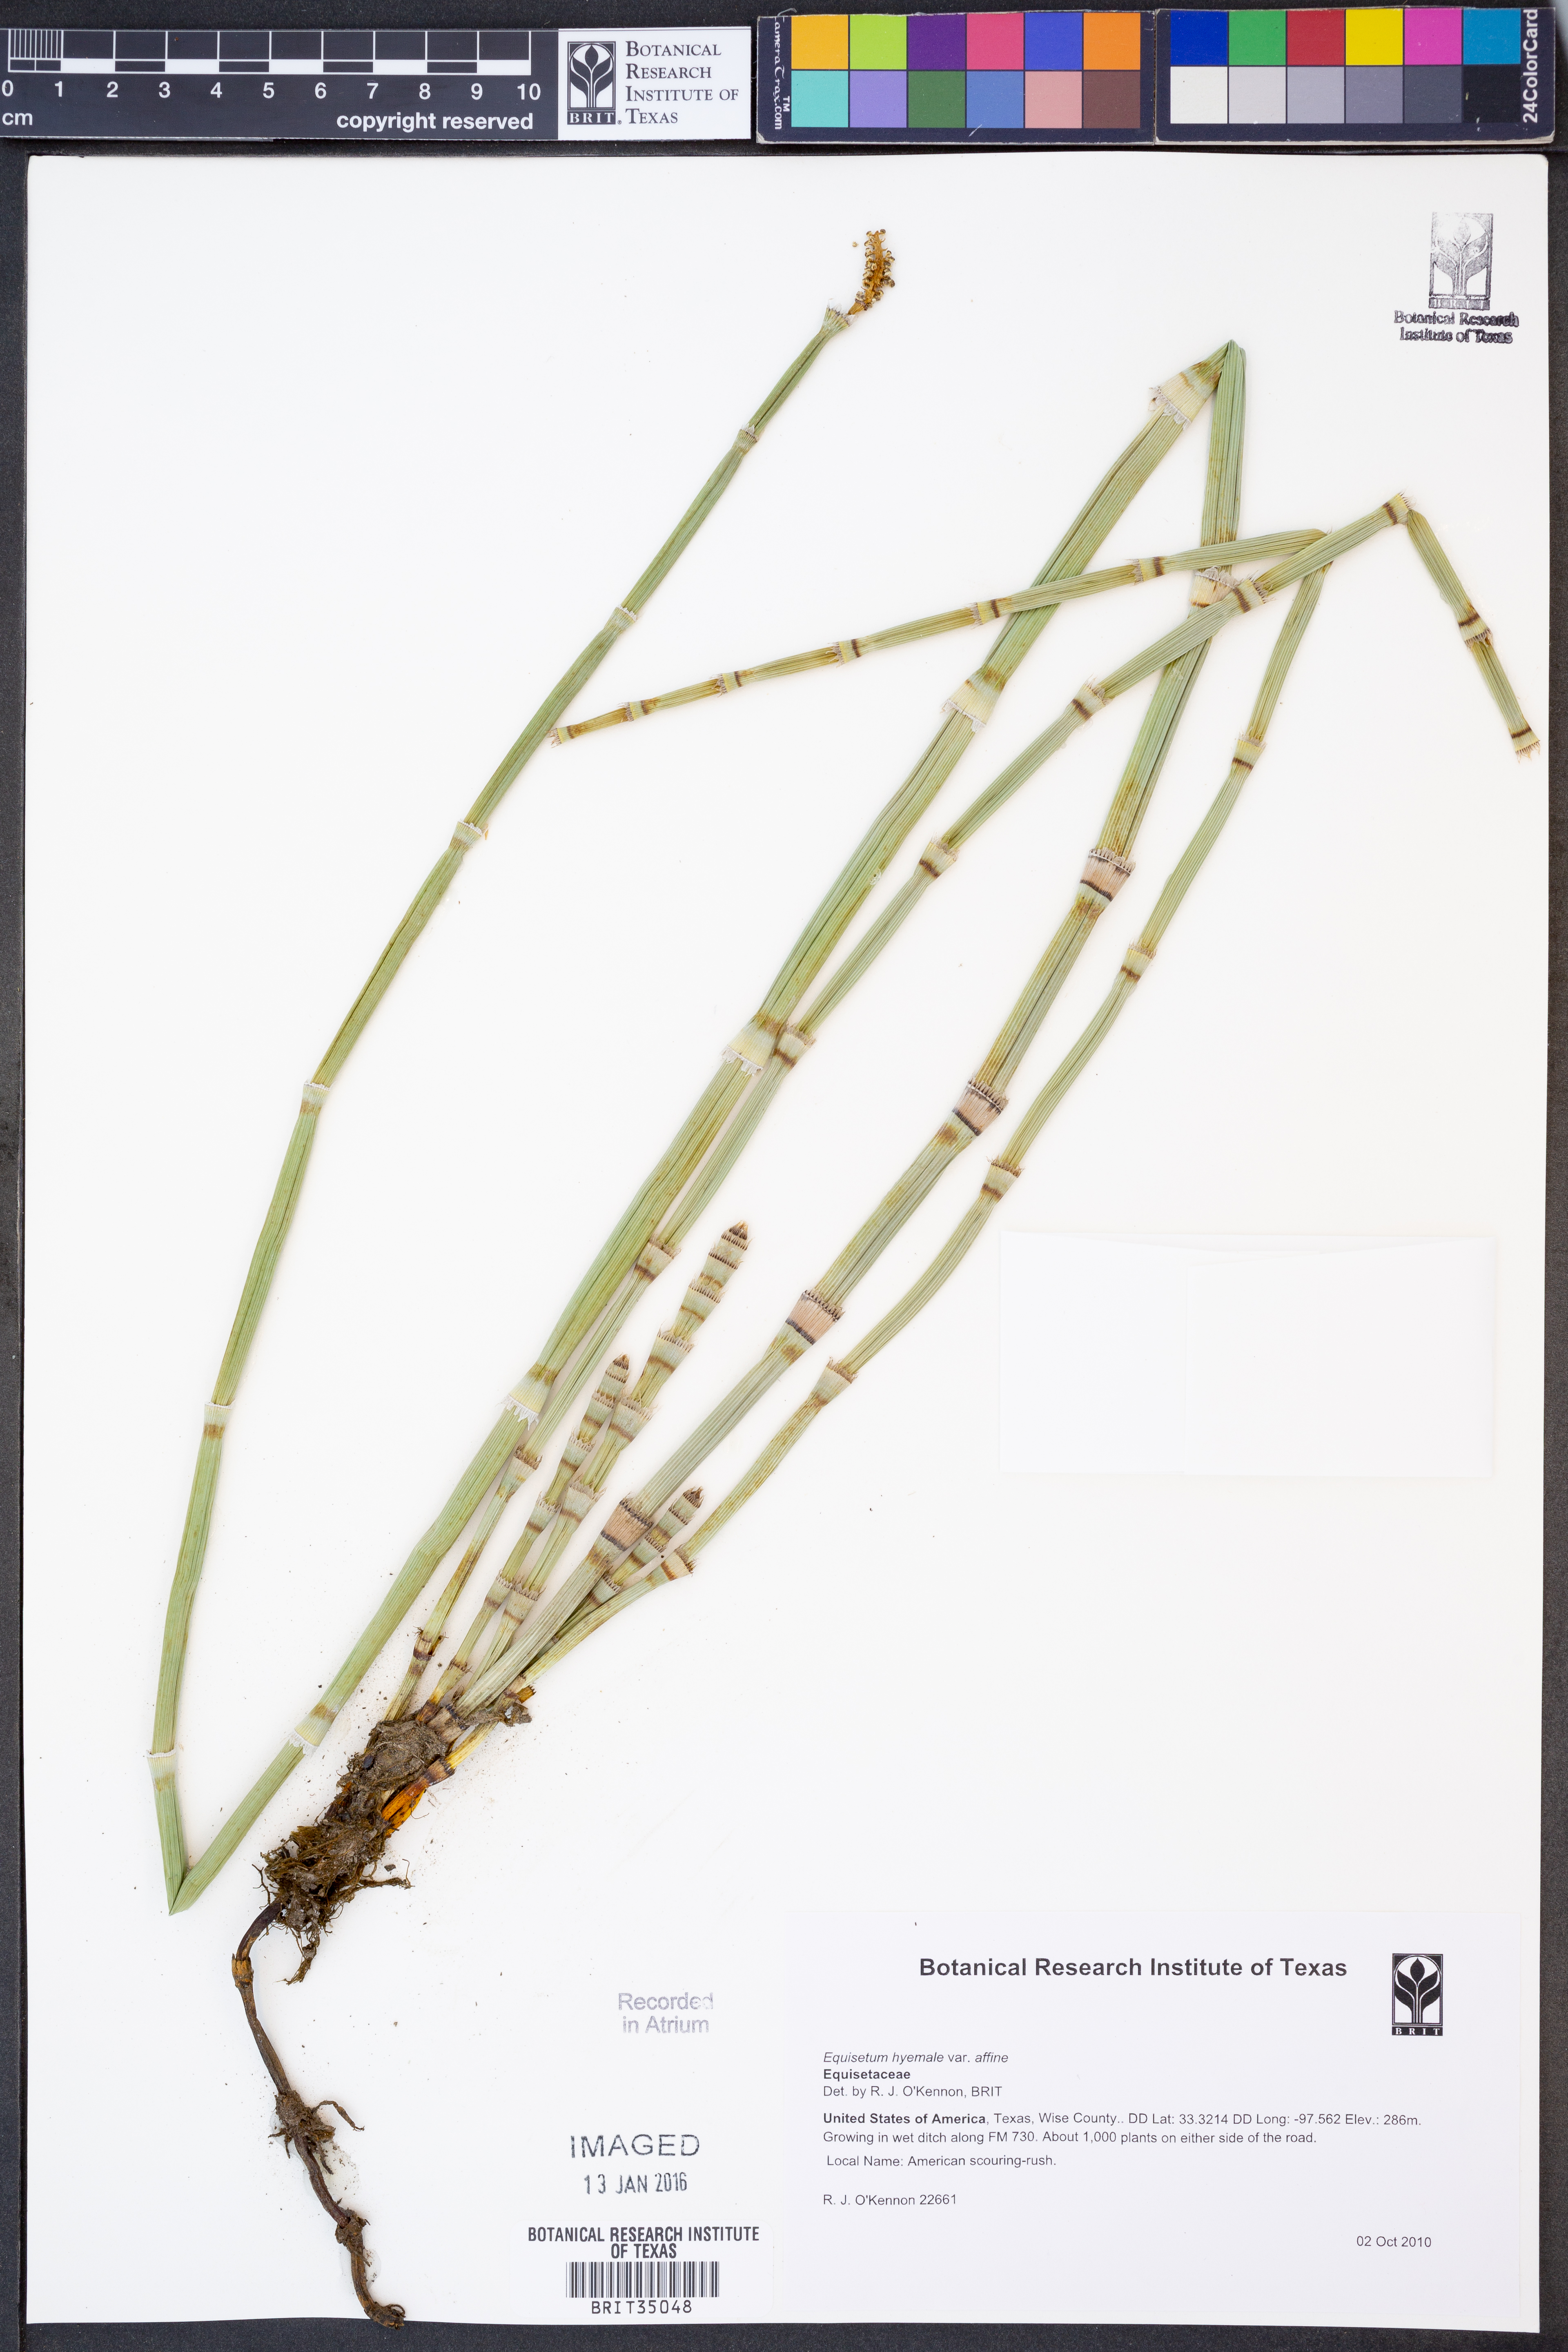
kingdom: Plantae
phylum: Tracheophyta
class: Polypodiopsida
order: Equisetales
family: Equisetaceae
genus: Equisetum
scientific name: Equisetum praealtum
